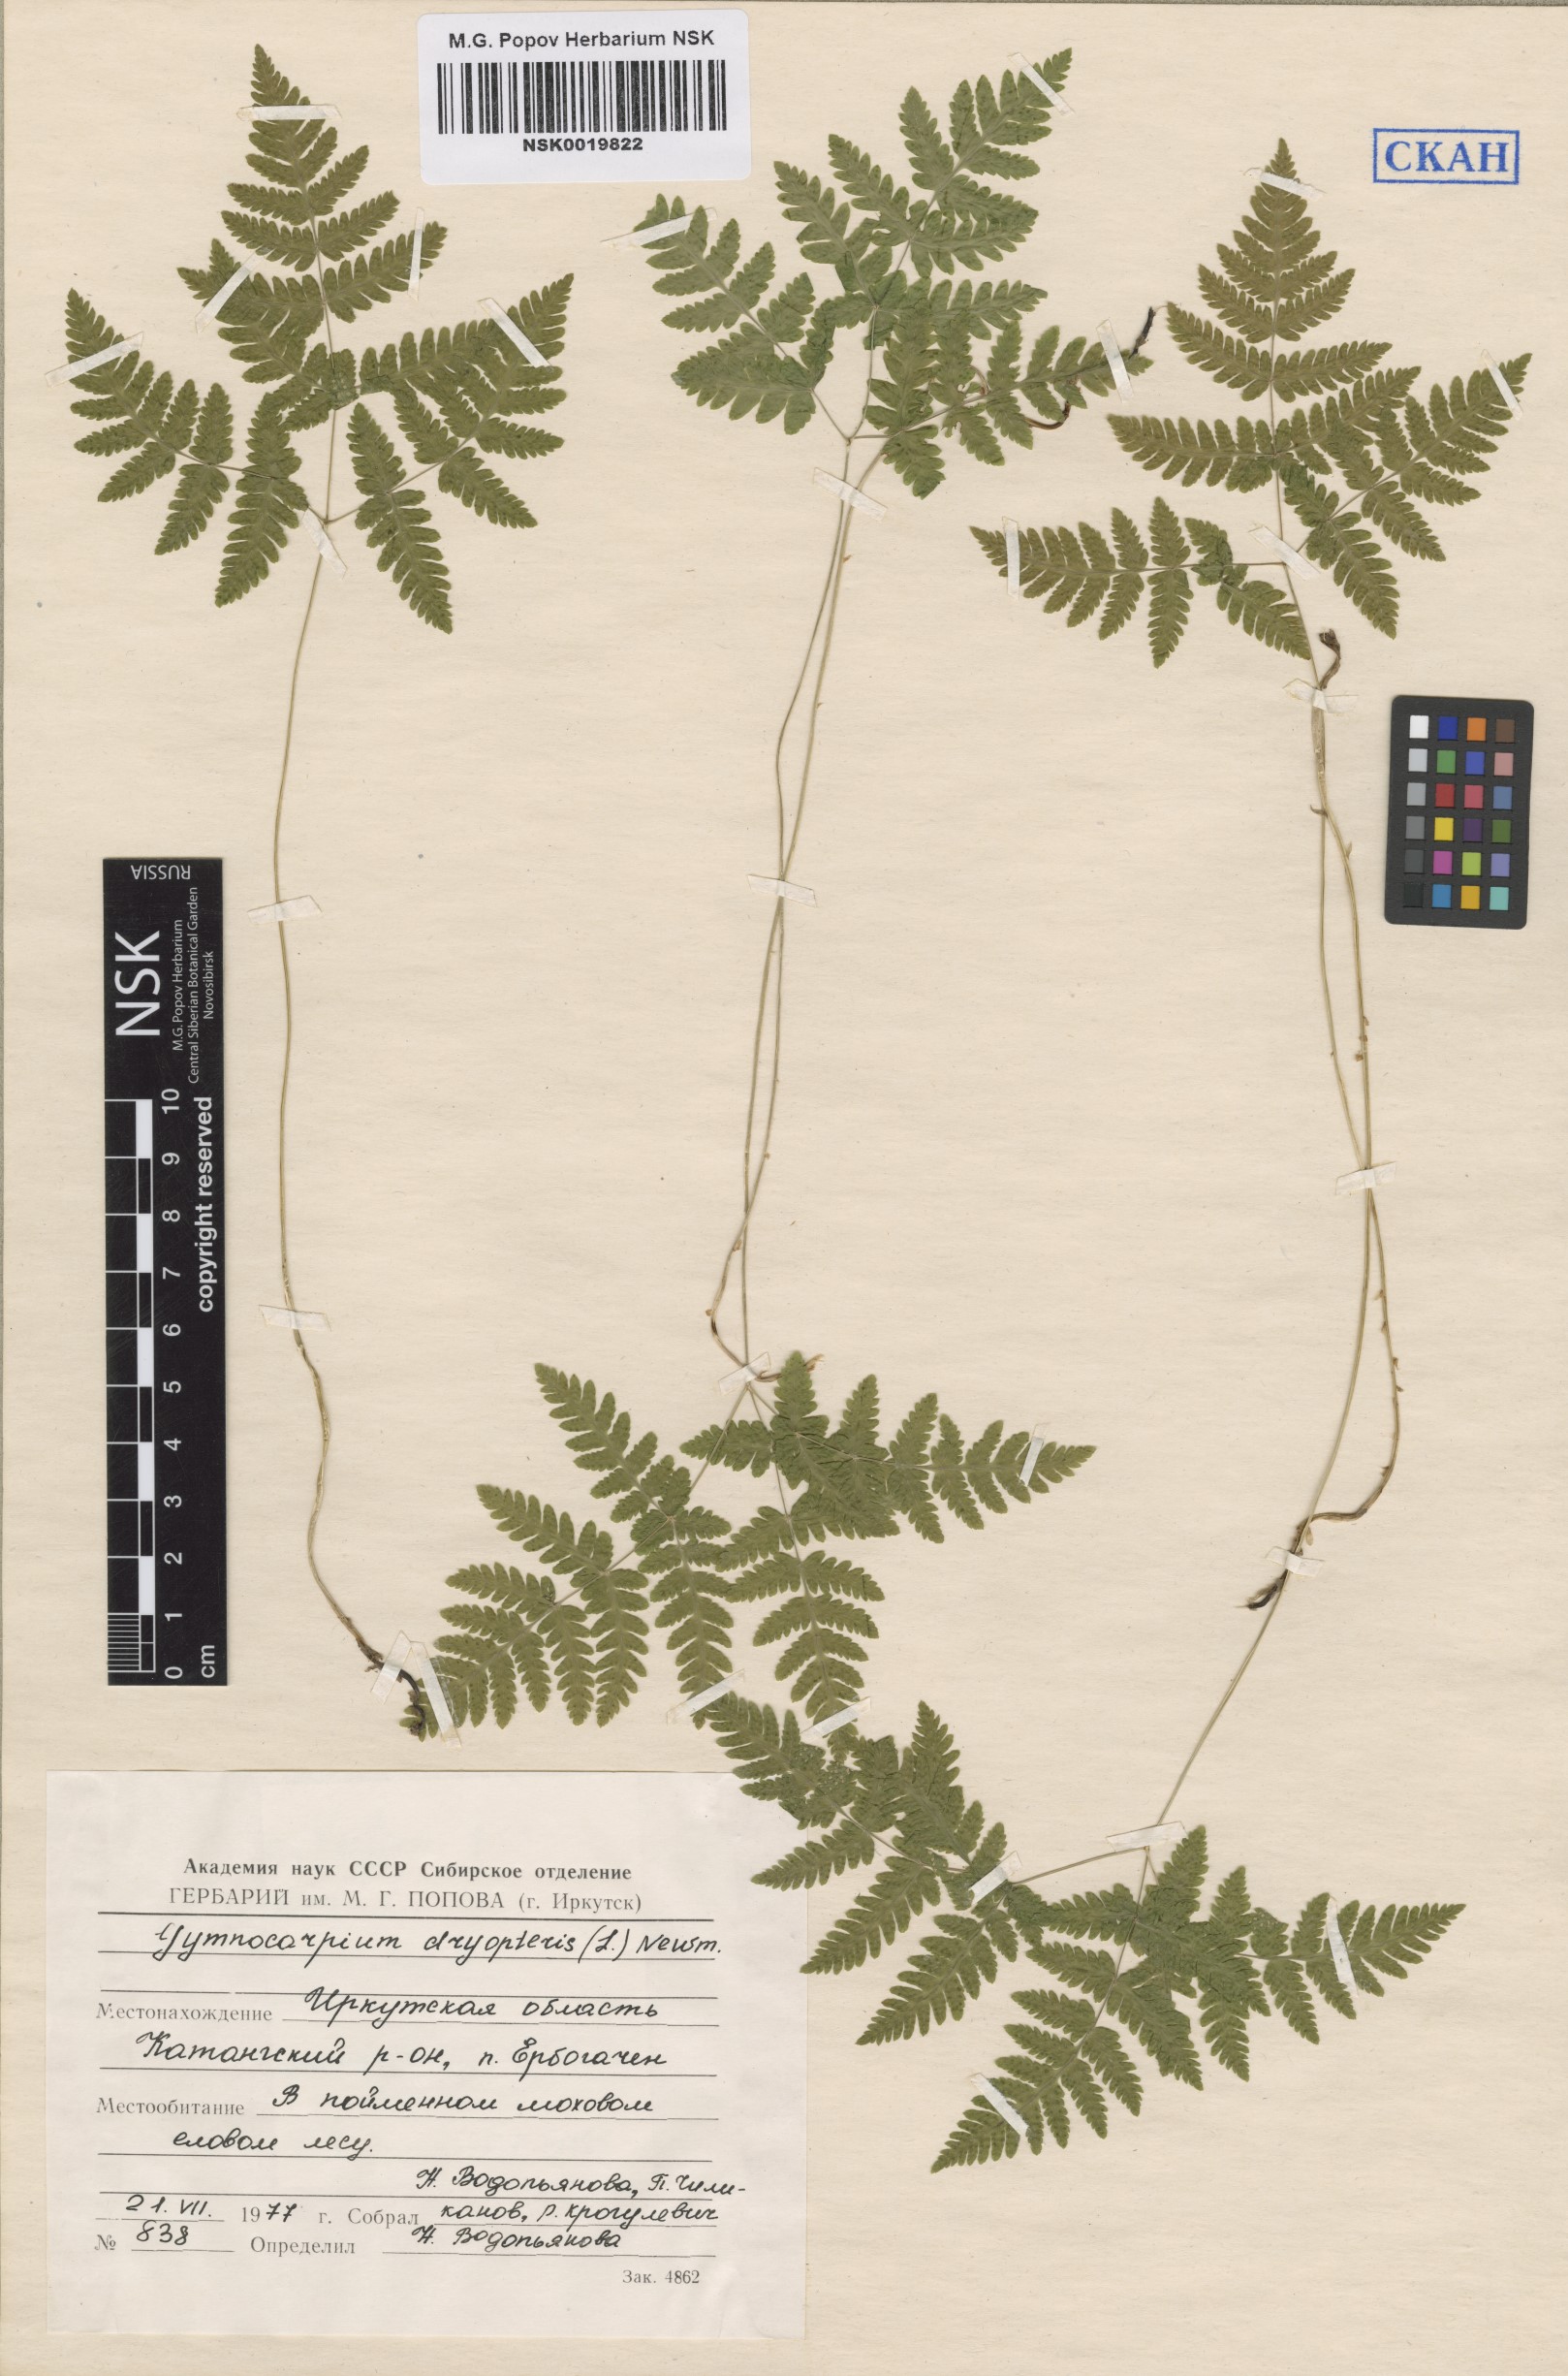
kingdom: Plantae
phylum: Tracheophyta
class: Polypodiopsida
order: Polypodiales
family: Cystopteridaceae
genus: Gymnocarpium
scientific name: Gymnocarpium dryopteris
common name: Oak fern
